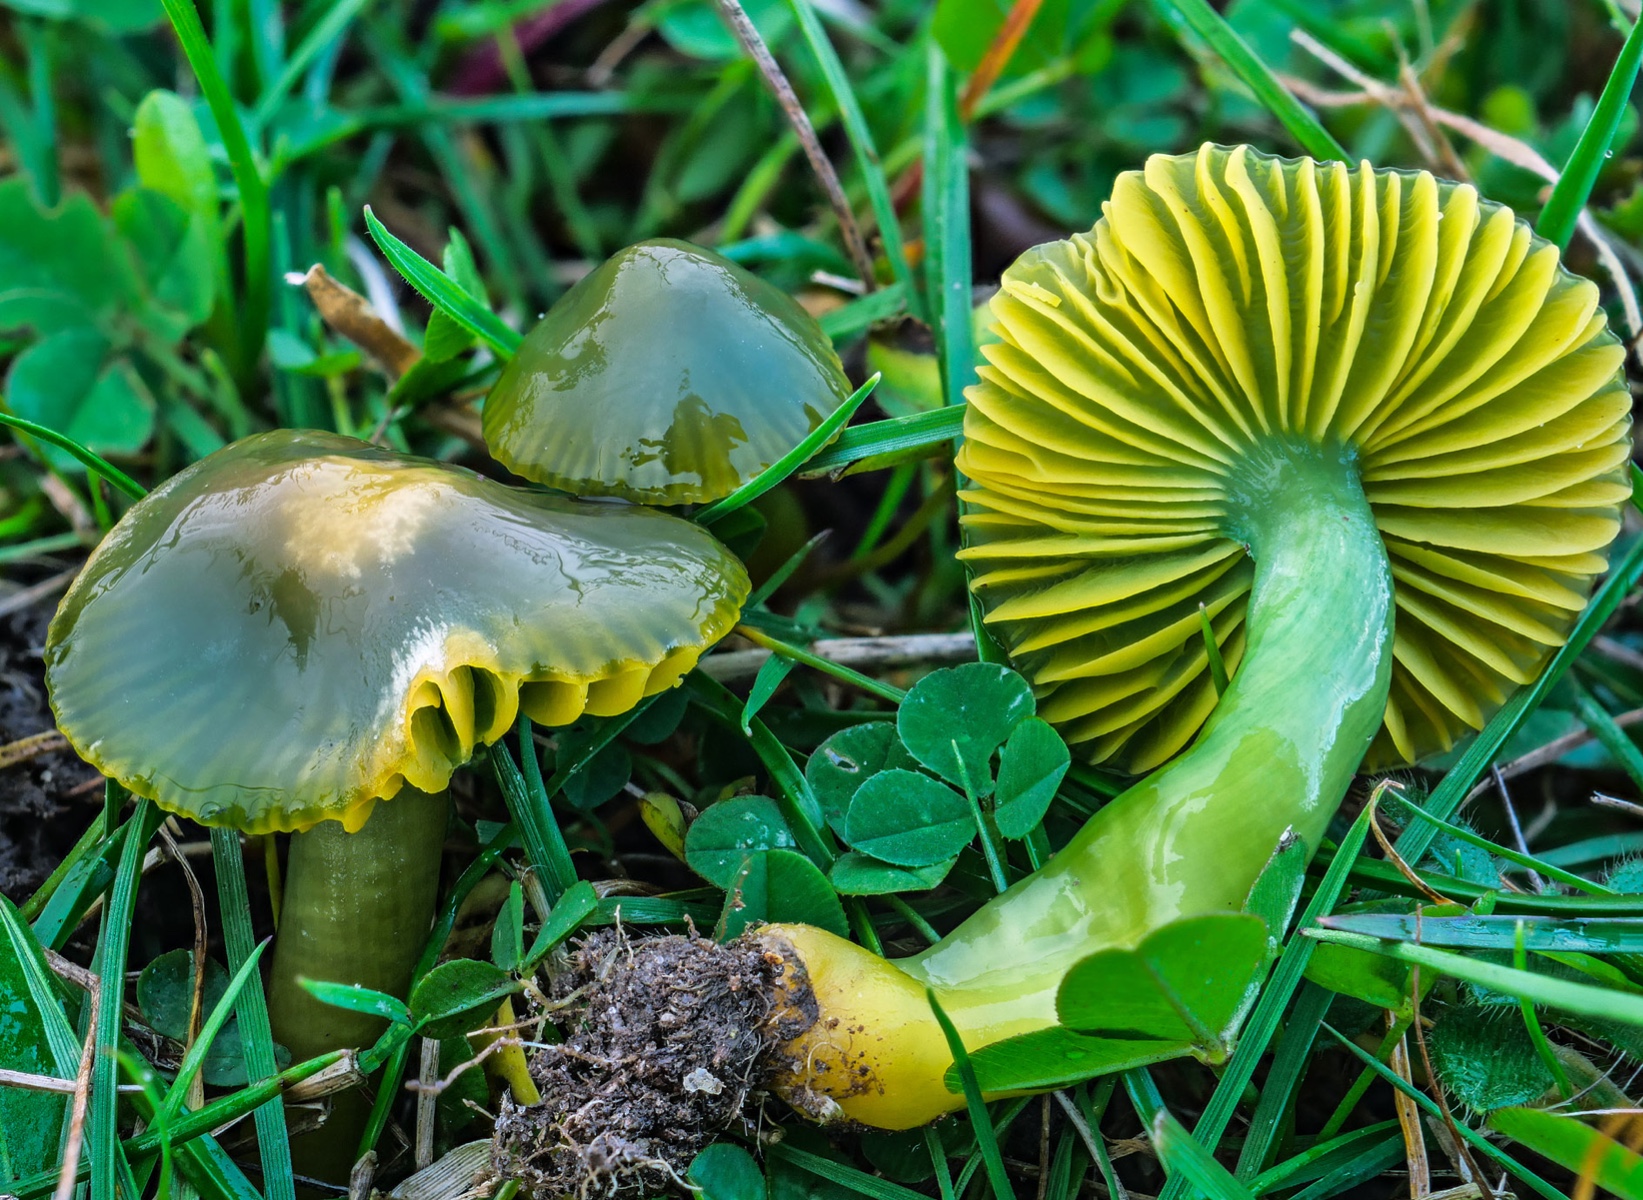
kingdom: Fungi
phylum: Basidiomycota
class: Agaricomycetes
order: Agaricales
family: Hygrophoraceae
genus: Gliophorus
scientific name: Gliophorus psittacinus
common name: papegøje-vokshat
